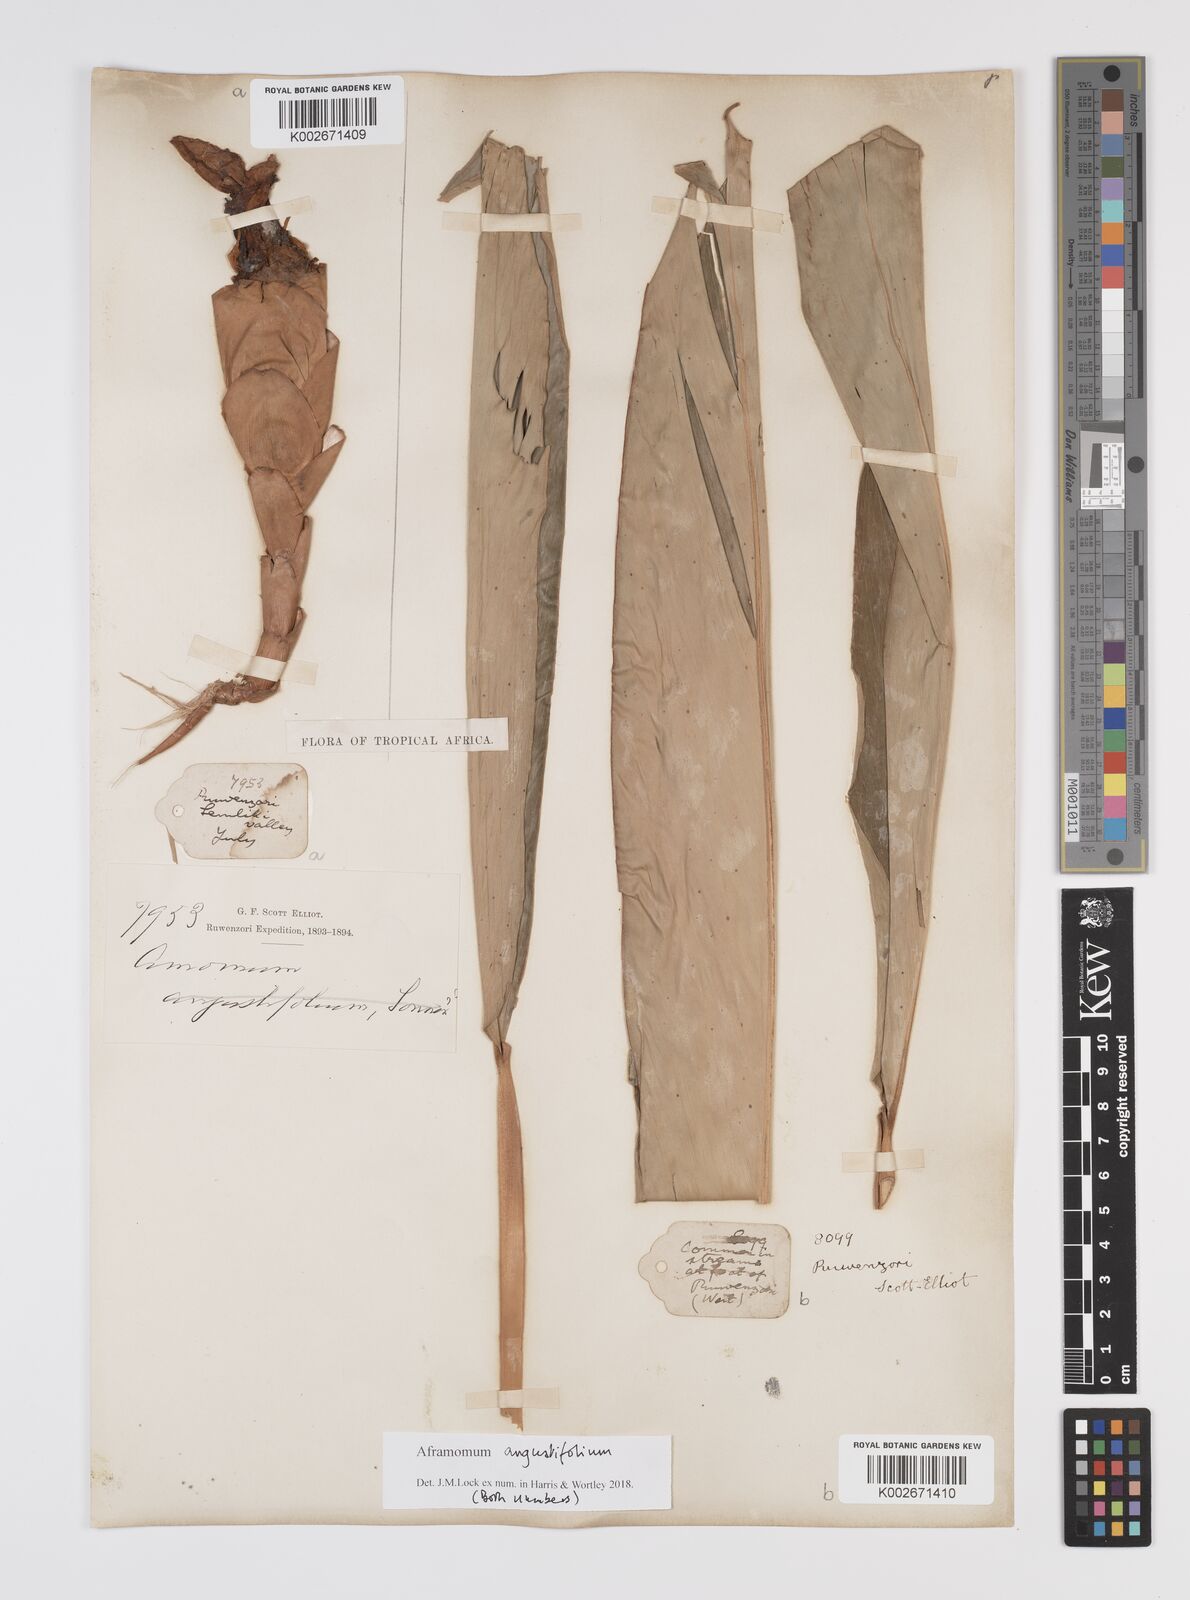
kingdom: Plantae
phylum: Tracheophyta
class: Liliopsida
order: Zingiberales
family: Zingiberaceae
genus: Aframomum
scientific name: Aframomum angustifolium
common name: Guinea grains
